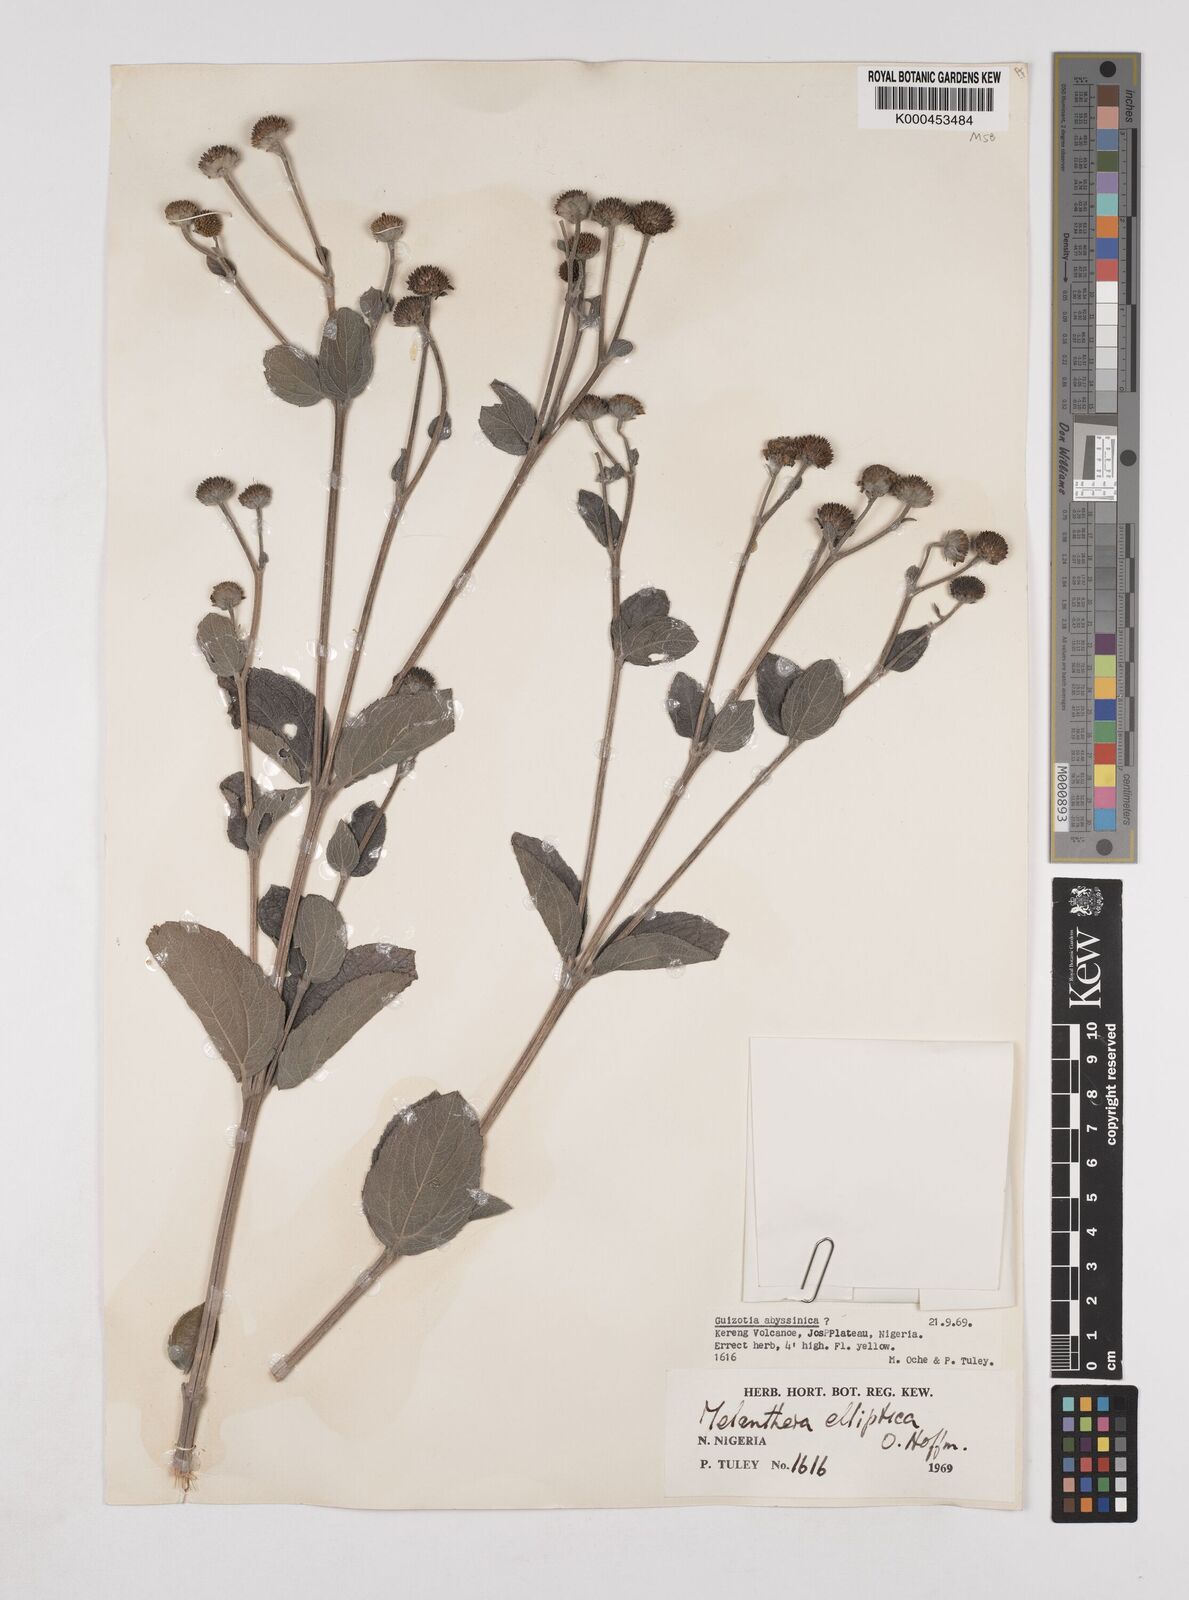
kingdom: Plantae
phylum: Tracheophyta
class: Magnoliopsida
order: Asterales
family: Asteraceae
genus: Lipotriche
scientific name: Lipotriche elliptica
